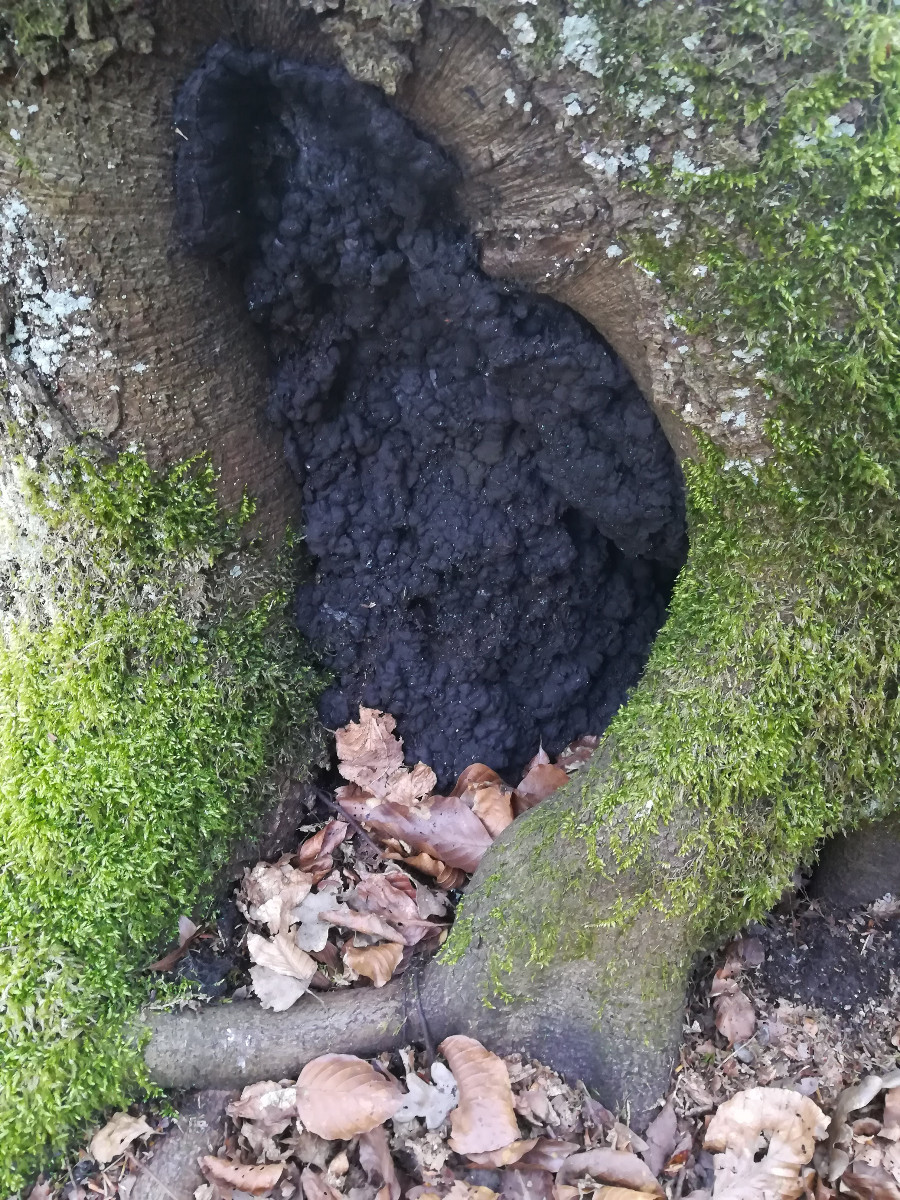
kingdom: Fungi
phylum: Ascomycota
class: Sordariomycetes
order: Xylariales
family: Xylariaceae
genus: Kretzschmaria
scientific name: Kretzschmaria deusta
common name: stor kulsvamp
